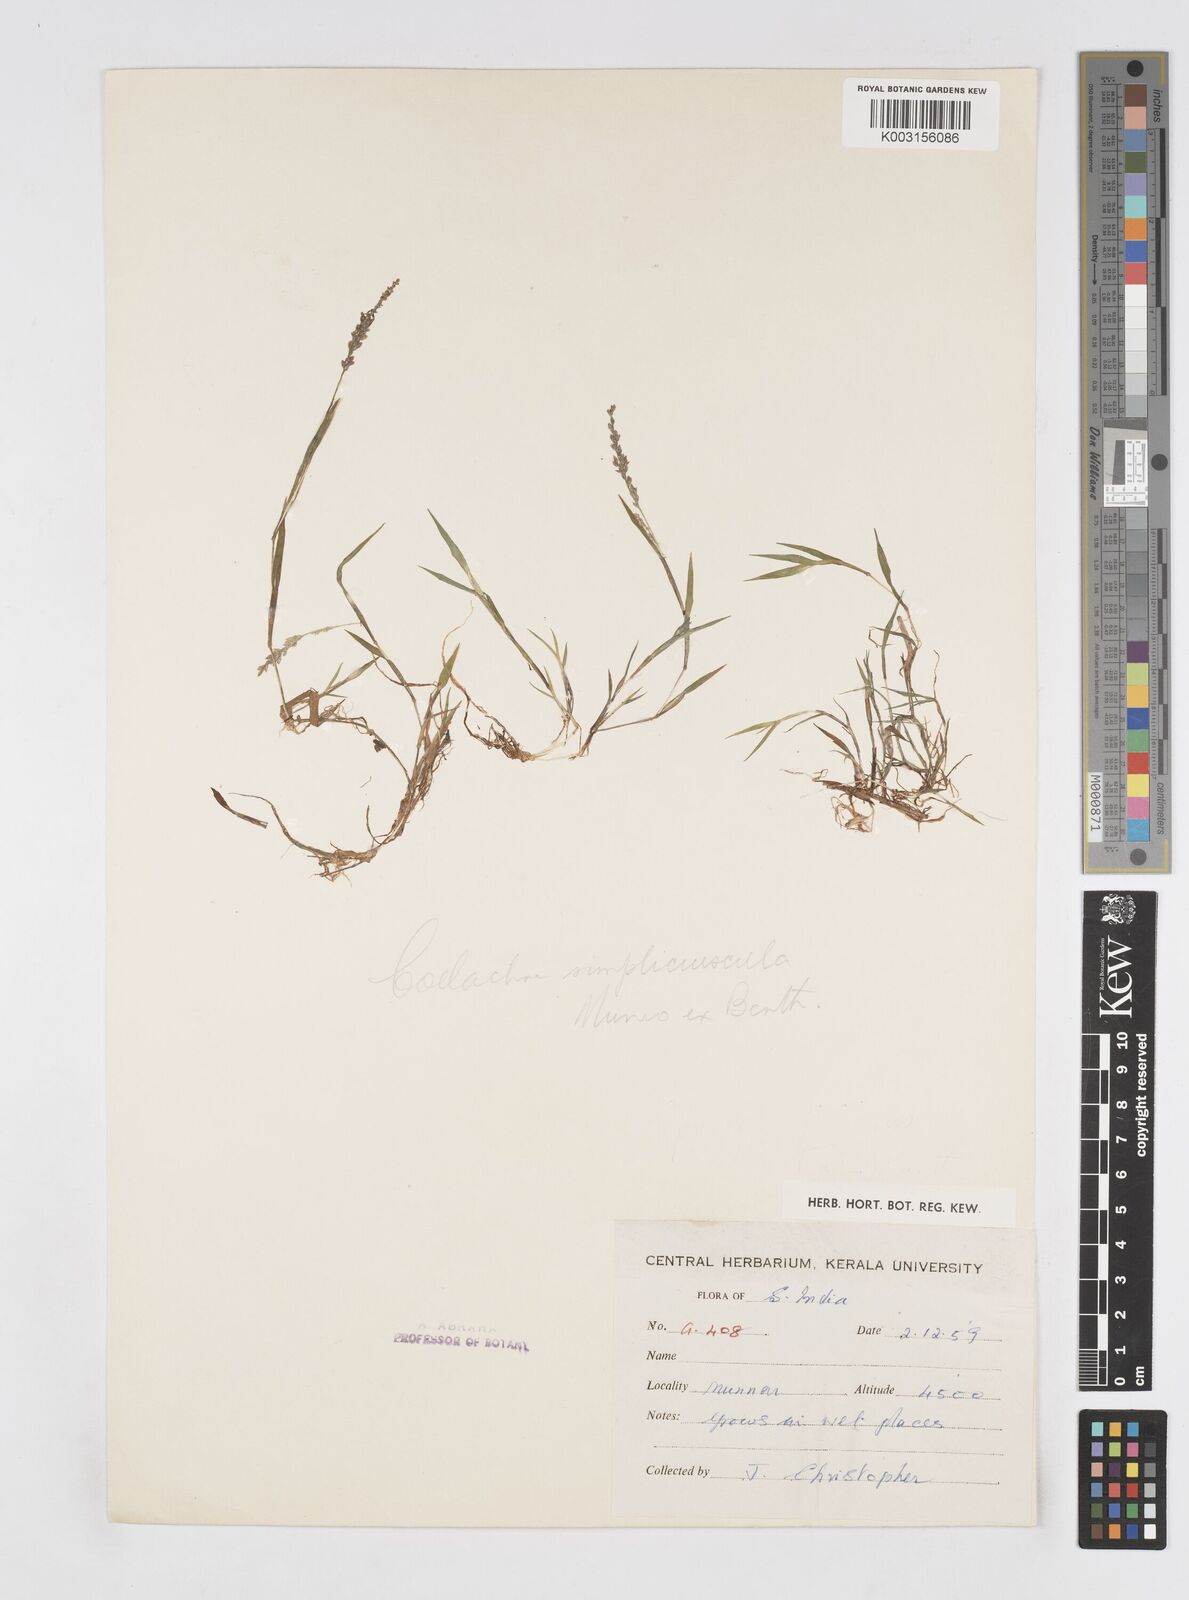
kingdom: Plantae
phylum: Tracheophyta
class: Liliopsida
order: Poales
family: Poaceae
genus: Coelachne
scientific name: Coelachne simpliciuscula
